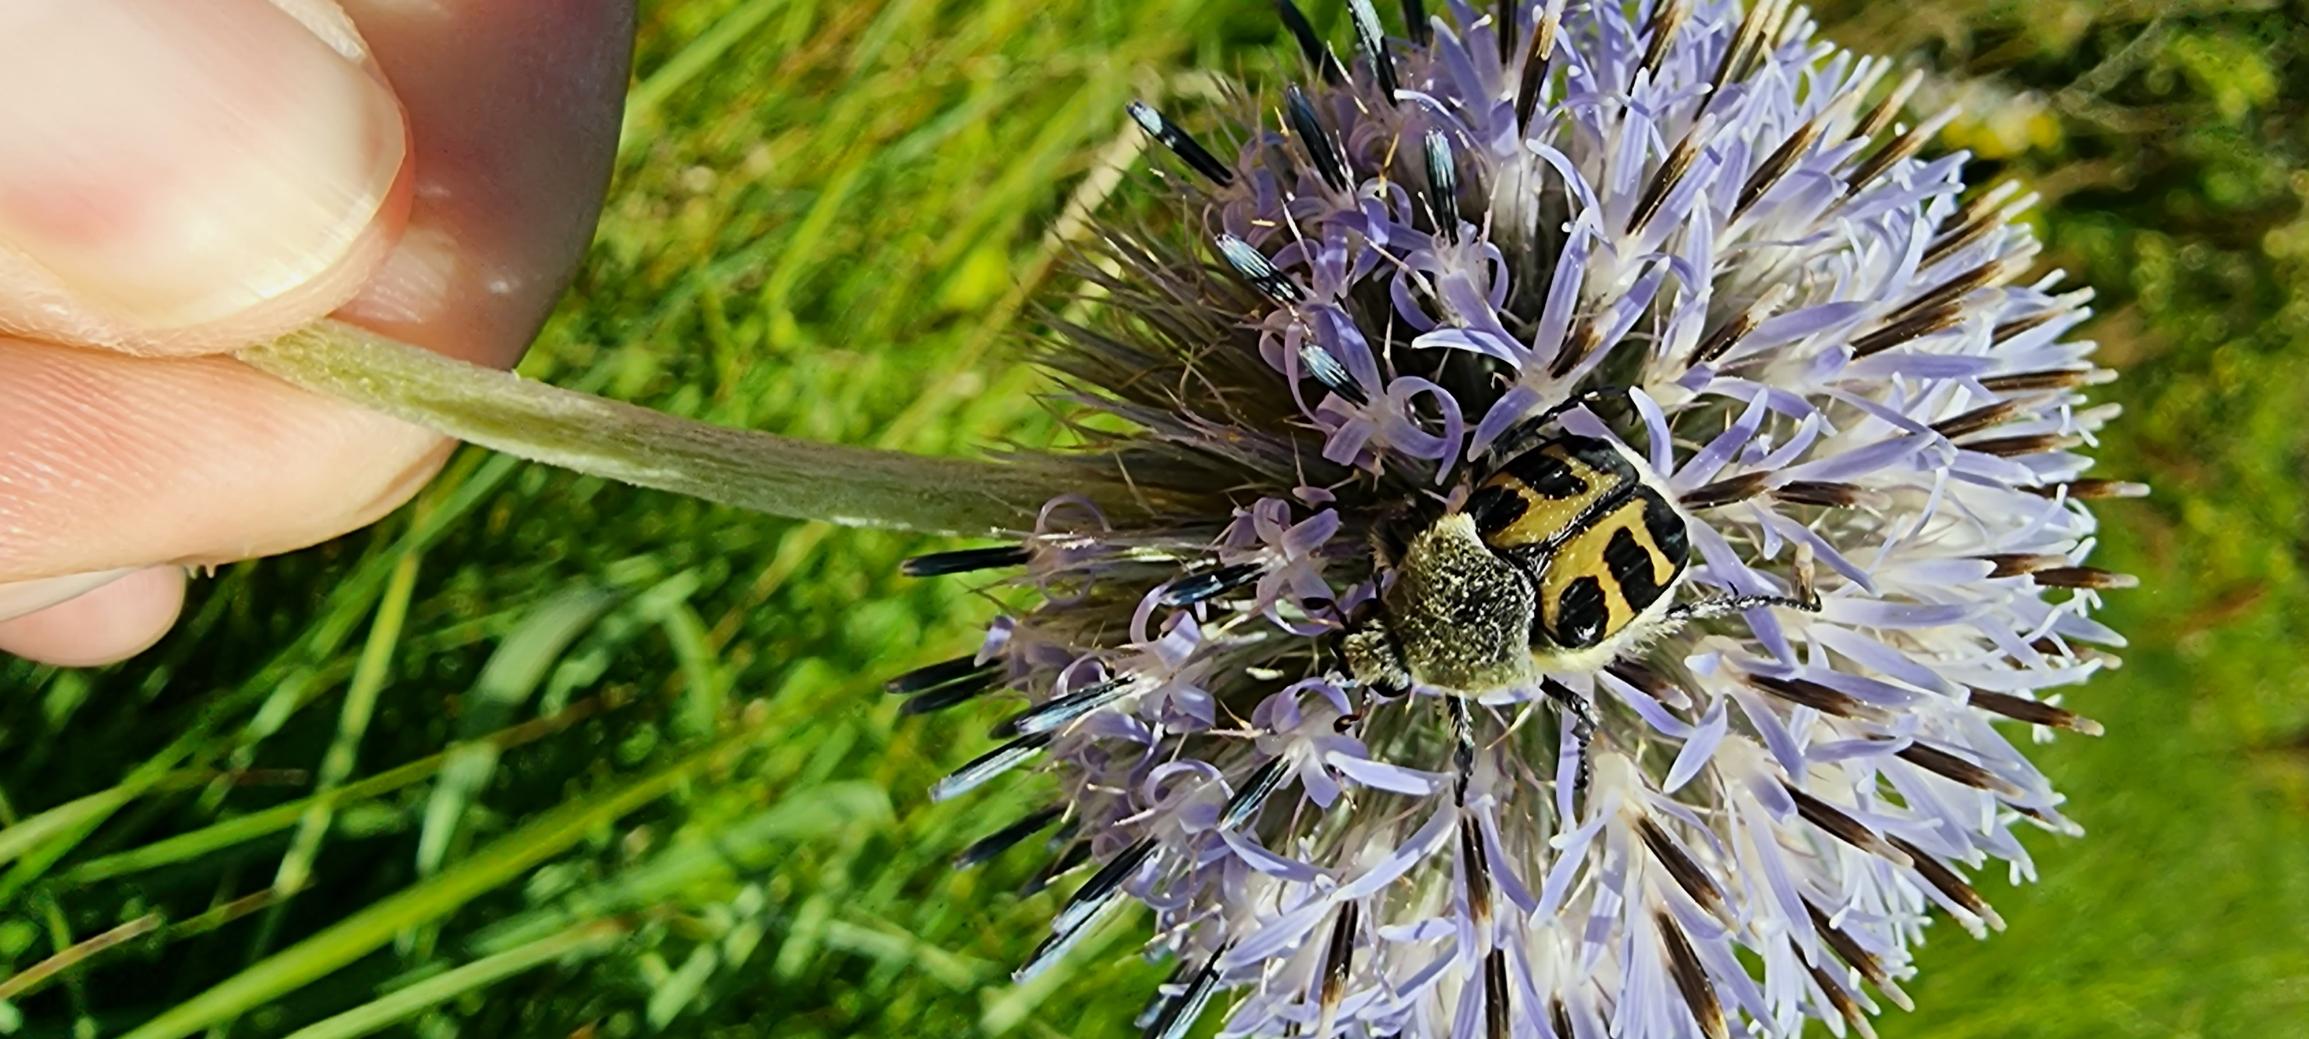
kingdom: Animalia
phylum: Arthropoda
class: Insecta
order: Coleoptera
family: Scarabaeidae
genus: Trichius
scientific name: Trichius gallicus
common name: Lille humlebille
